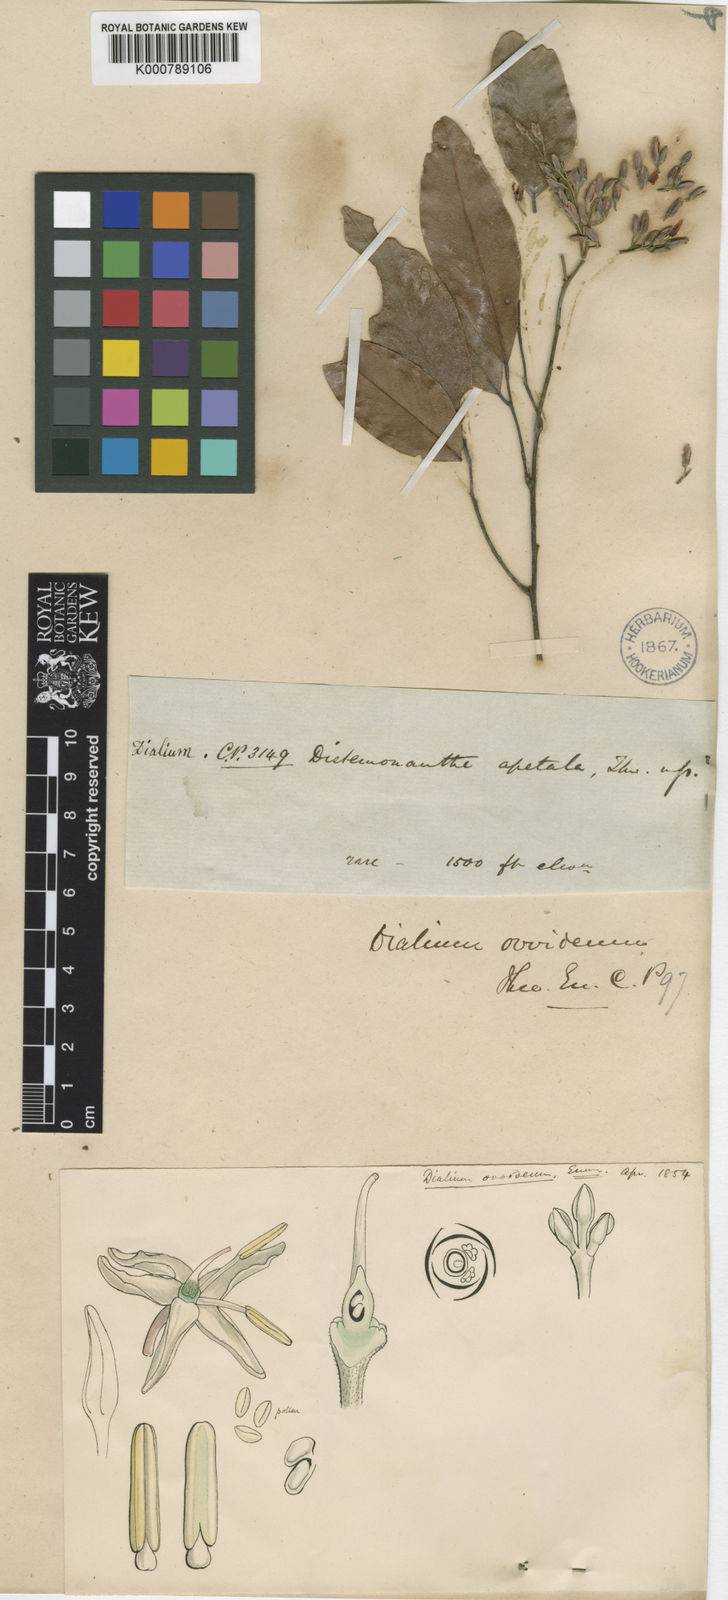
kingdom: Plantae
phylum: Tracheophyta
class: Magnoliopsida
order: Fabales
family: Fabaceae
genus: Dialium
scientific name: Dialium ovoideum
